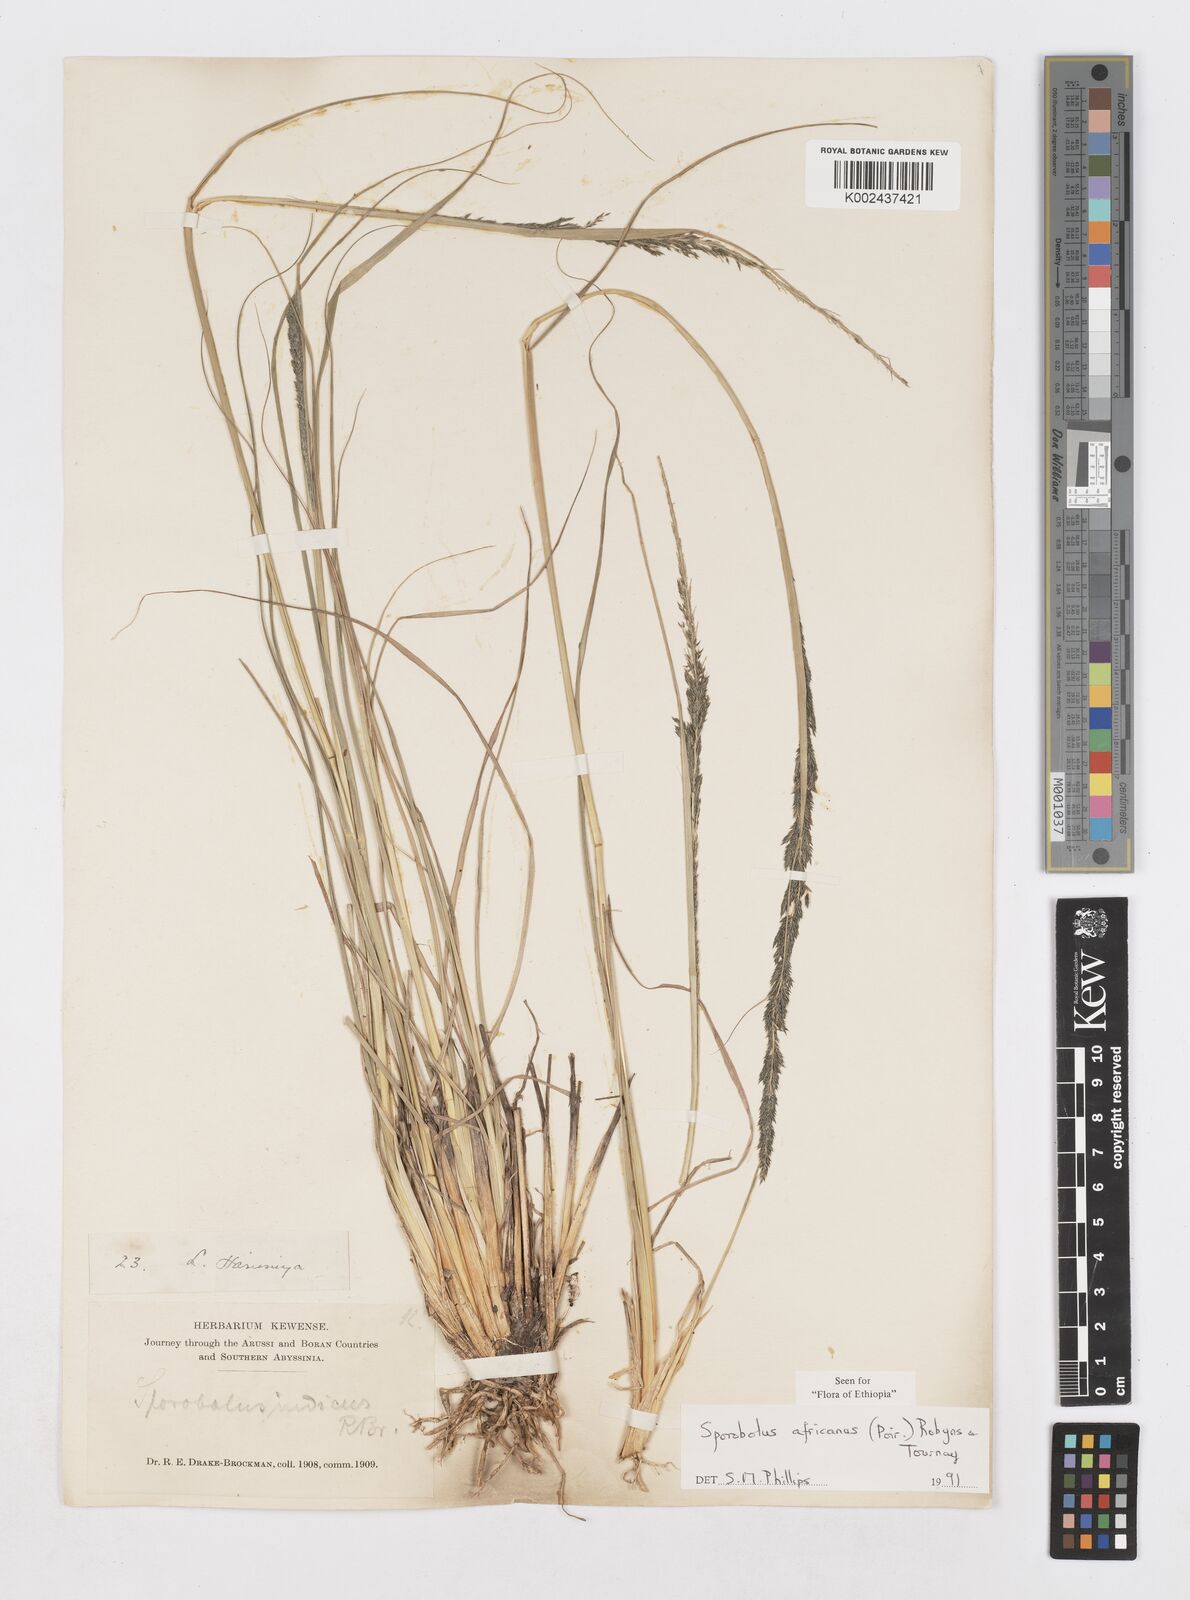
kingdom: Plantae
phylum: Tracheophyta
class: Liliopsida
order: Poales
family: Poaceae
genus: Sporobolus
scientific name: Sporobolus africanus
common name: African dropseed
